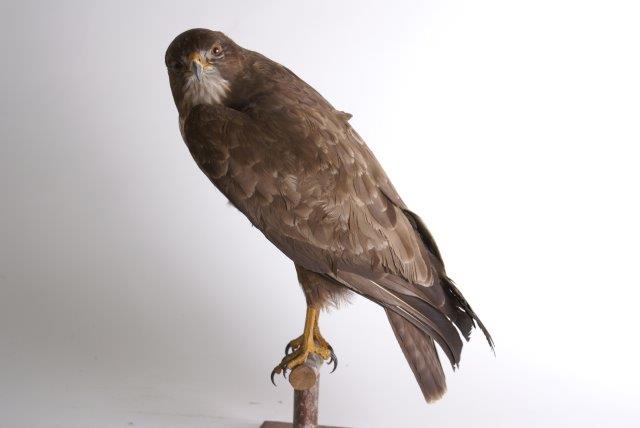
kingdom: Animalia
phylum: Chordata
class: Aves
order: Accipitriformes
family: Accipitridae
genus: Buteo
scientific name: Buteo buteo
